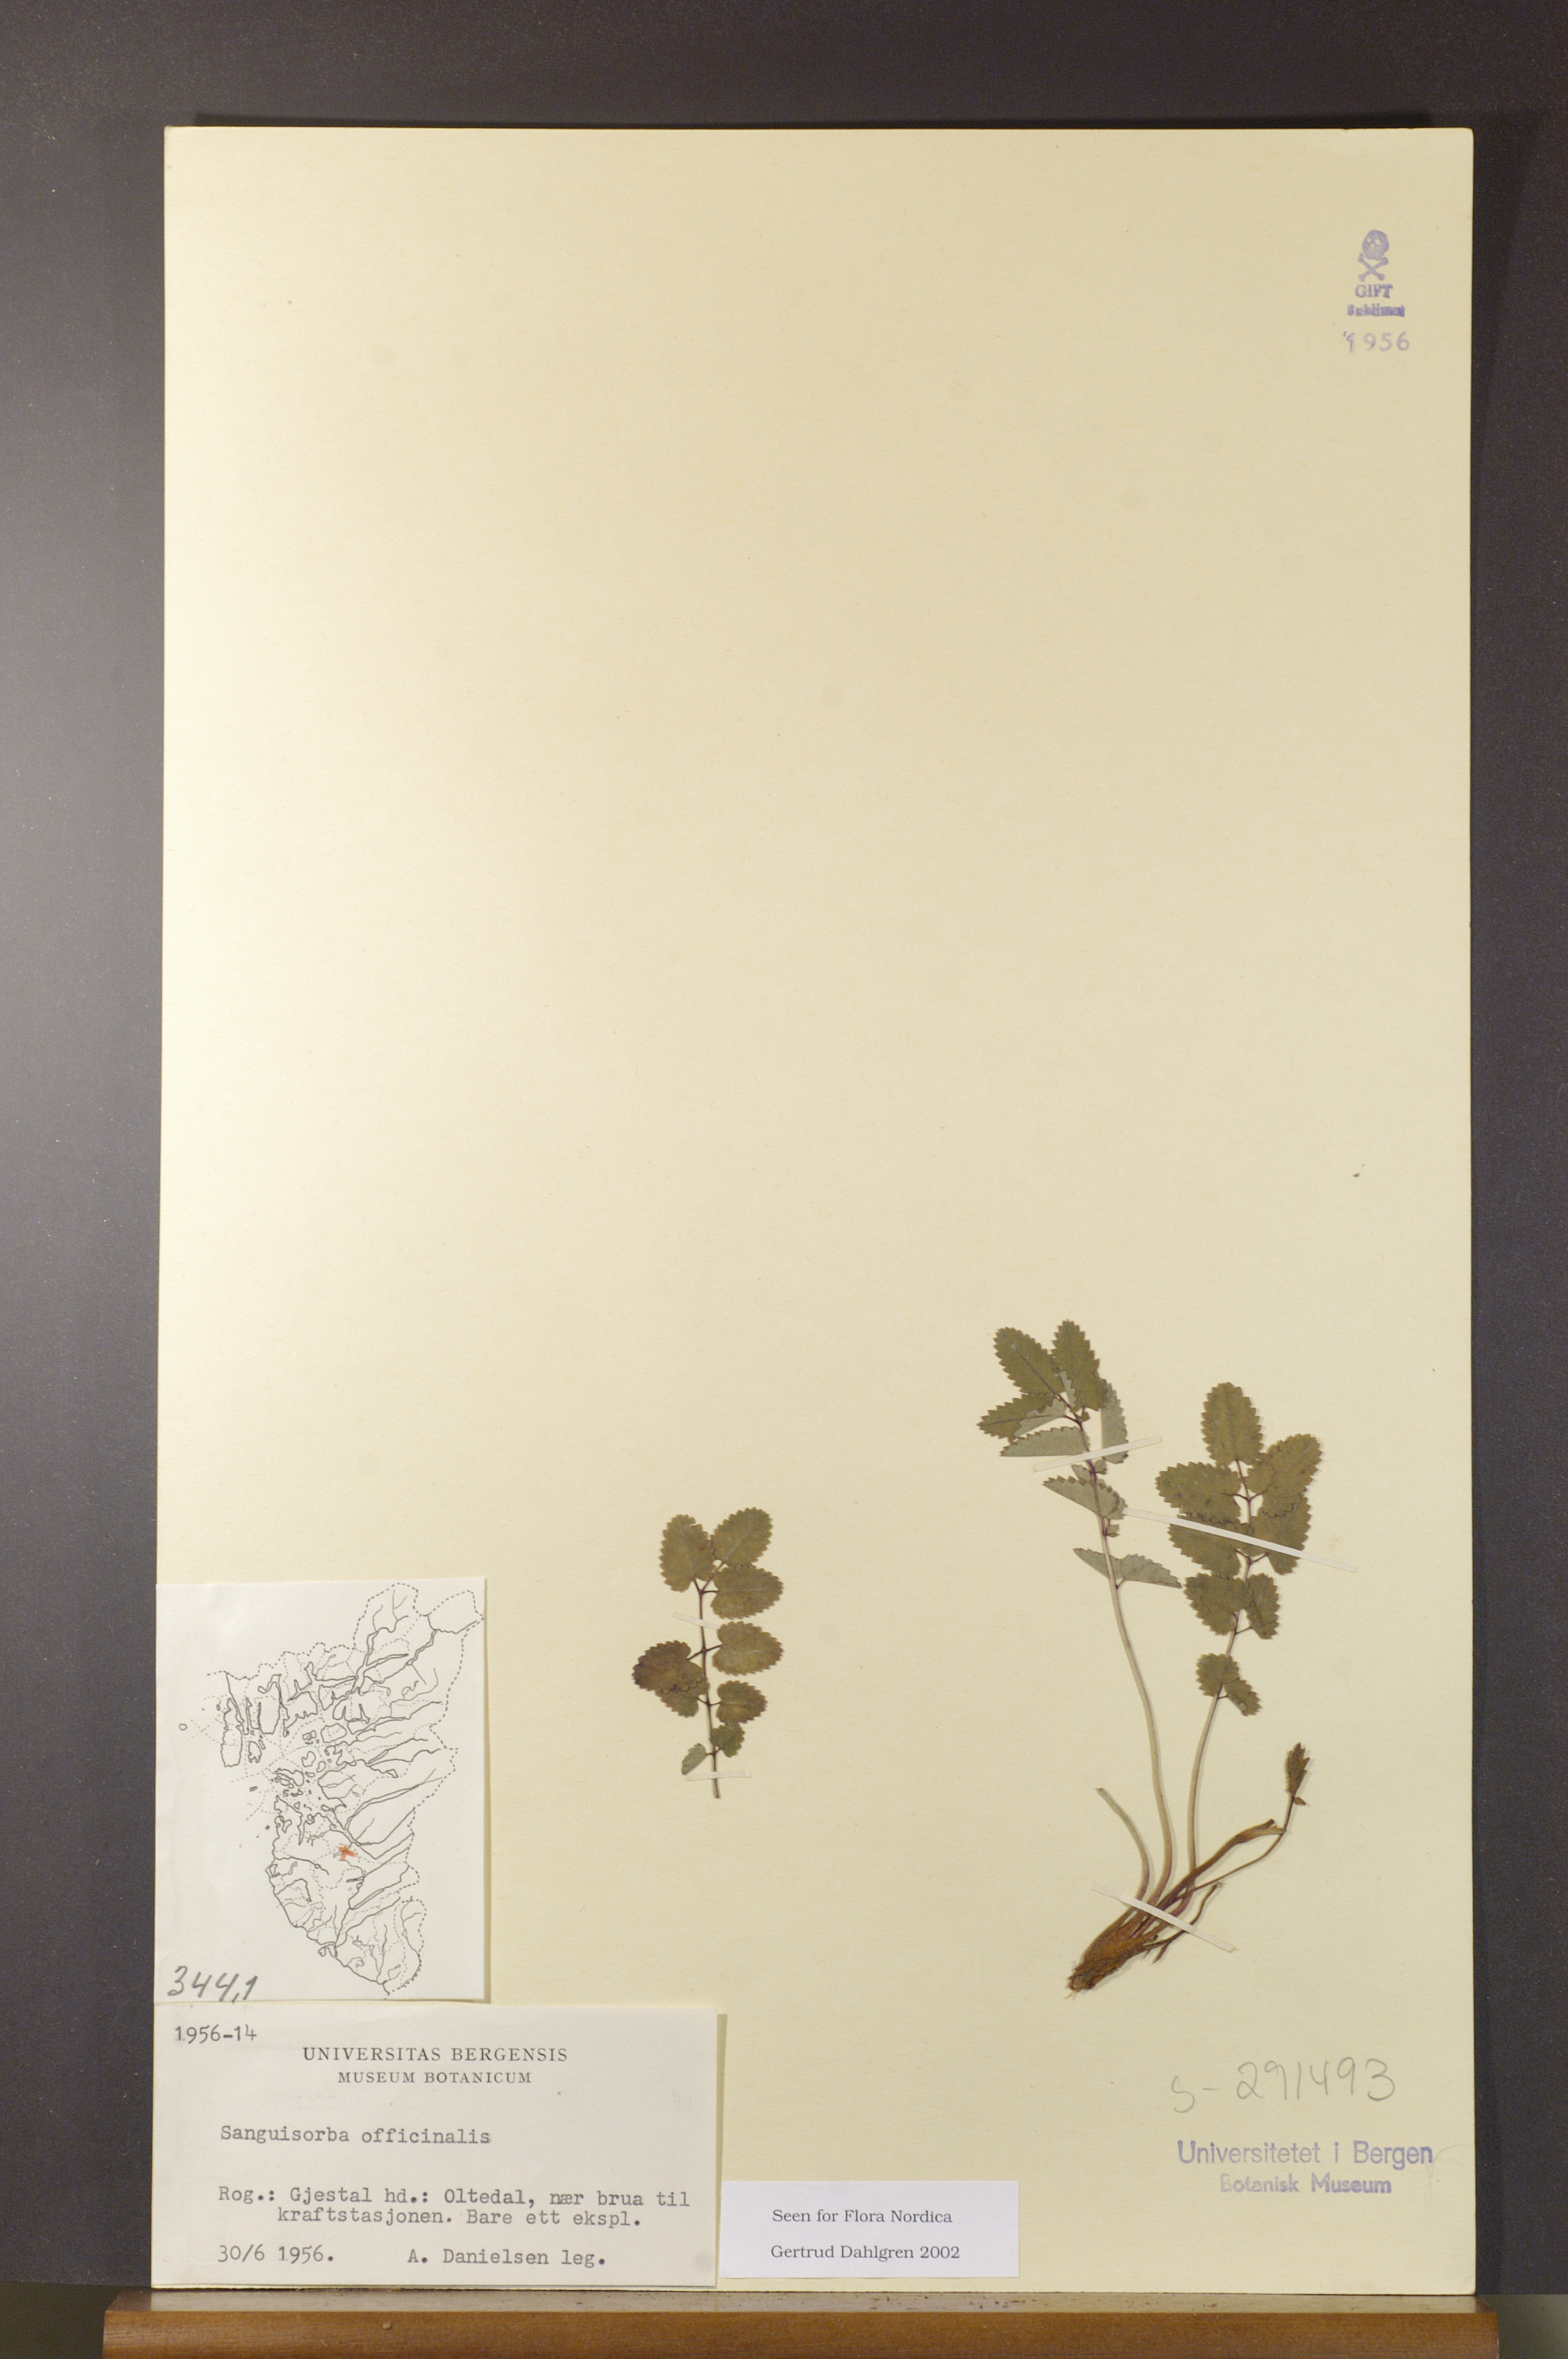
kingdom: Plantae
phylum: Tracheophyta
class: Magnoliopsida
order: Rosales
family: Rosaceae
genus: Sanguisorba
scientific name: Sanguisorba officinalis
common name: Great burnet
